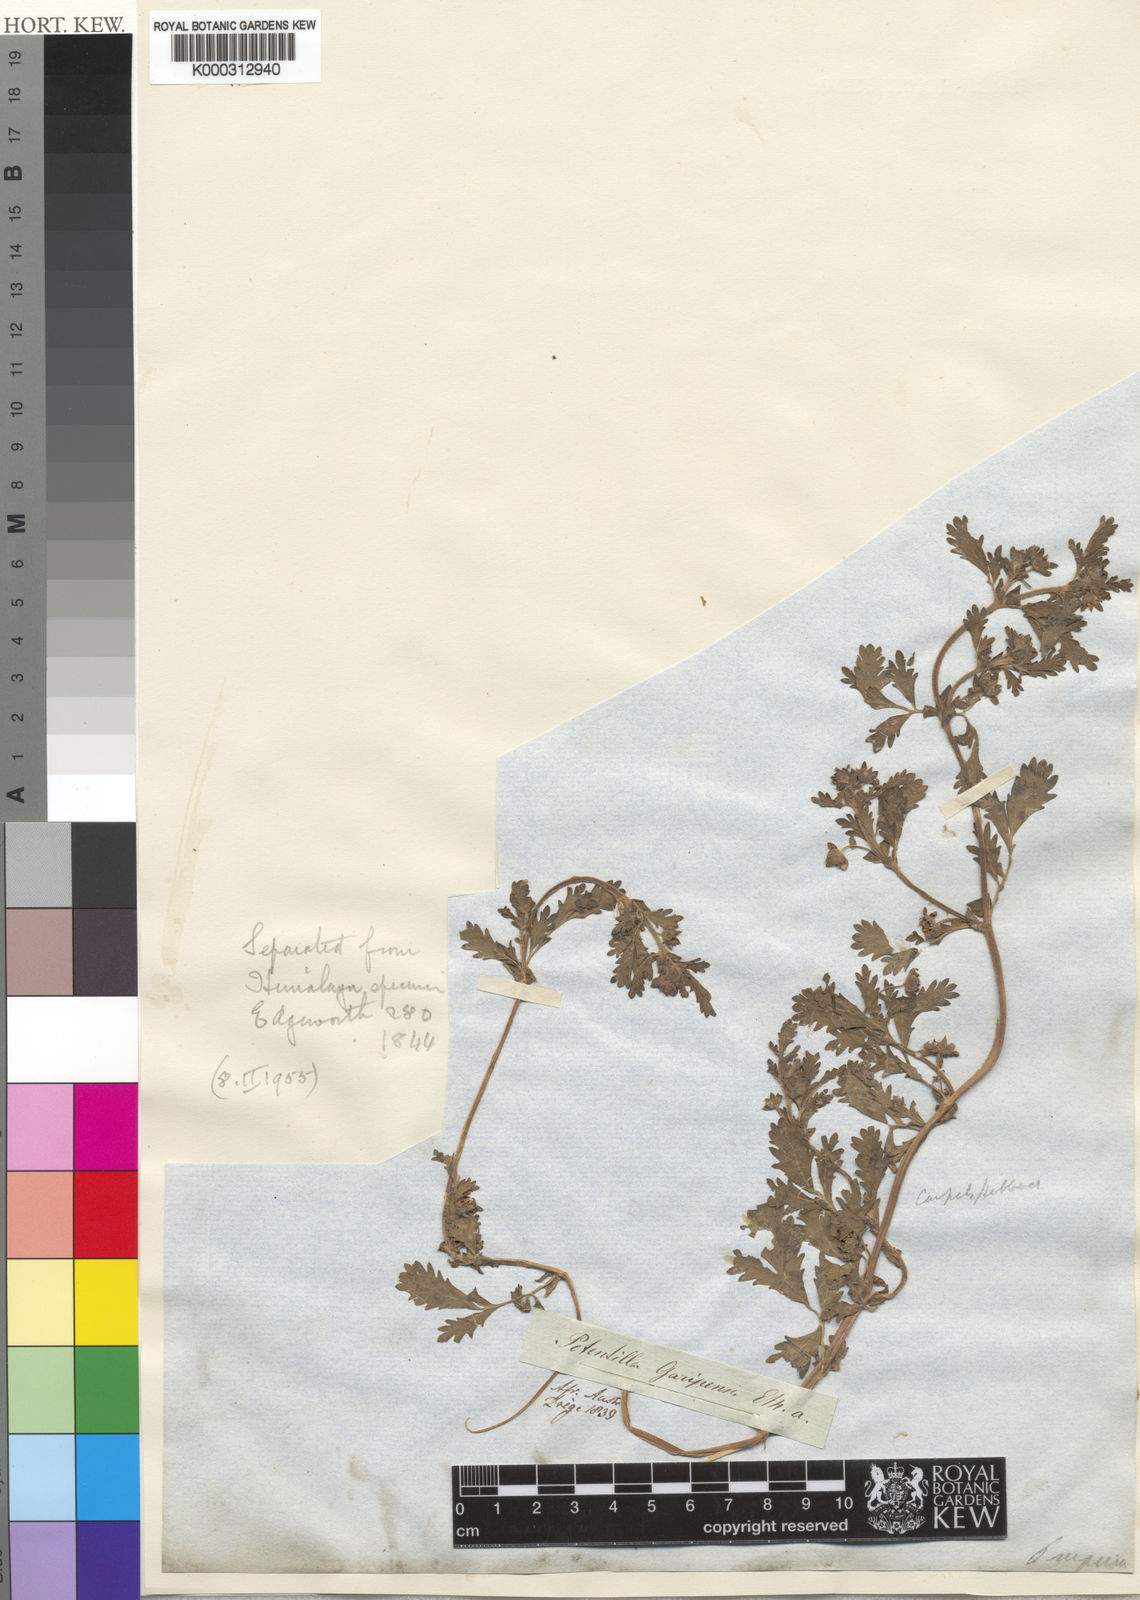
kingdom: Plantae
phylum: Tracheophyta
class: Magnoliopsida
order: Rosales
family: Rosaceae
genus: Potentilla
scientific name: Potentilla supina
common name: Prostrate cinquefoil
